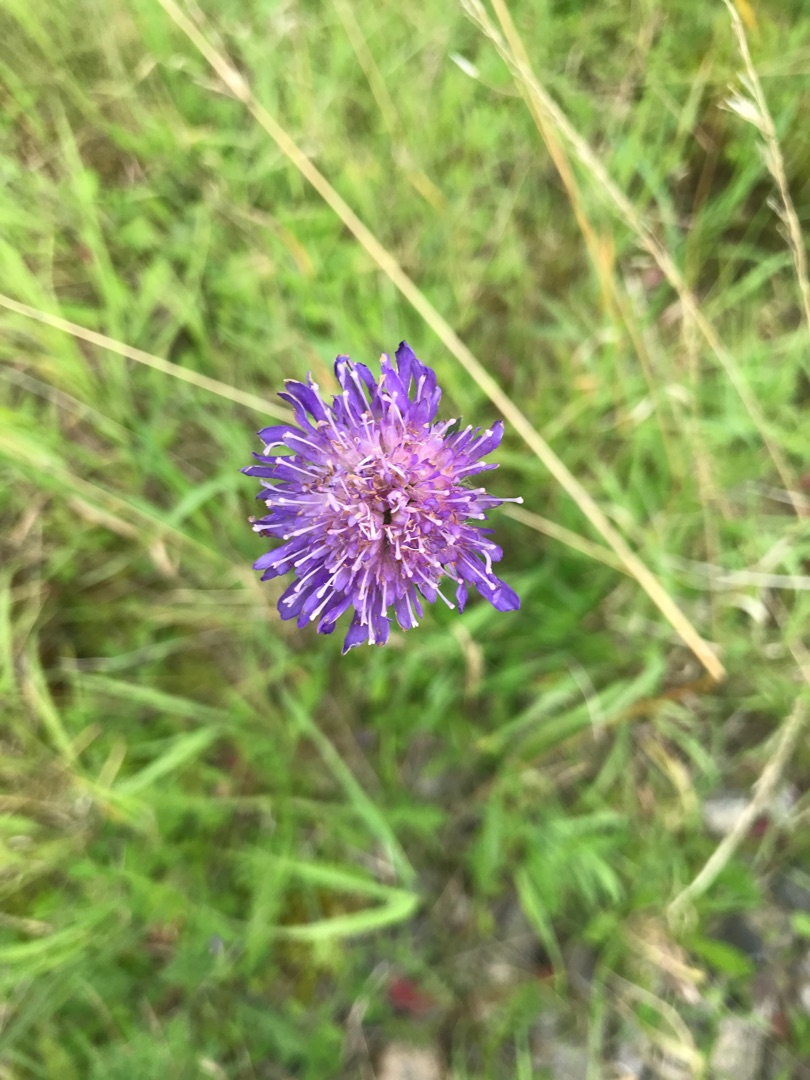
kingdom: Plantae
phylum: Tracheophyta
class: Magnoliopsida
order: Dipsacales
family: Caprifoliaceae
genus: Knautia
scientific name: Knautia arvensis
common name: Blåhat
